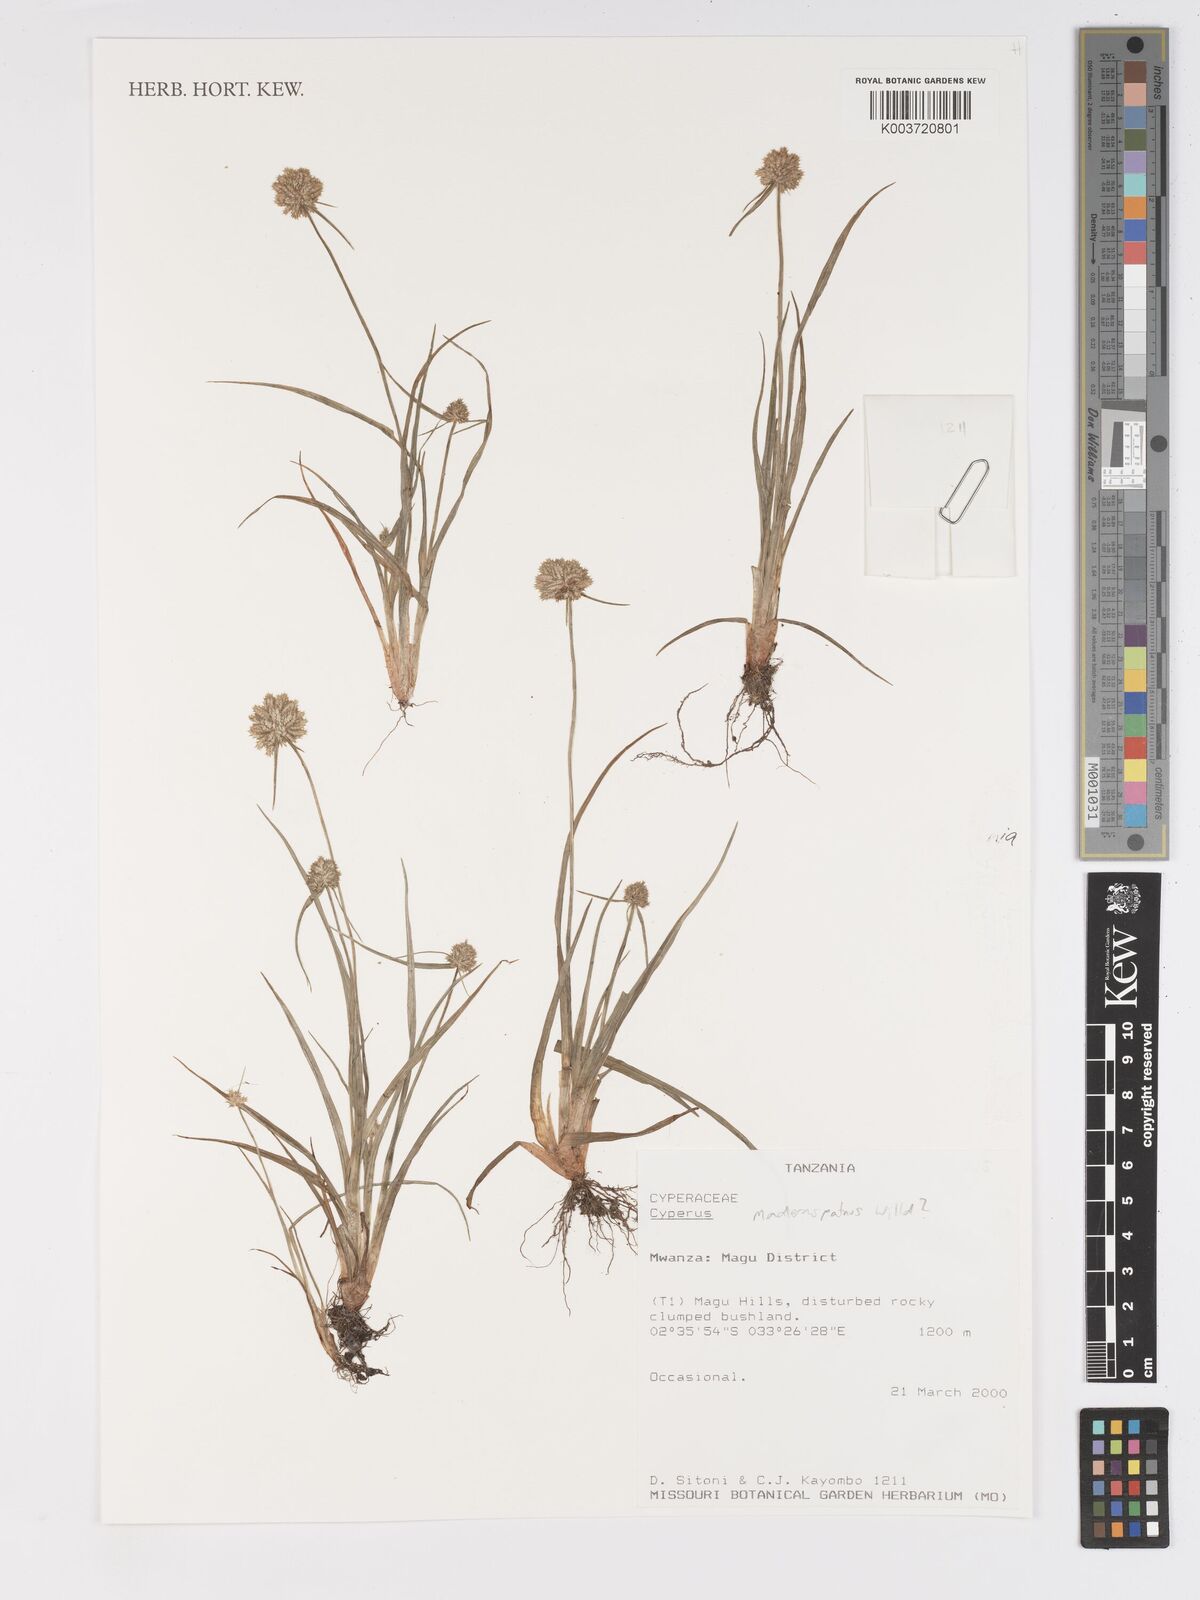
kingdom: Plantae
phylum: Tracheophyta
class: Liliopsida
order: Poales
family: Cyperaceae
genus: Cyperus
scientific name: Cyperus maderaspatanus
